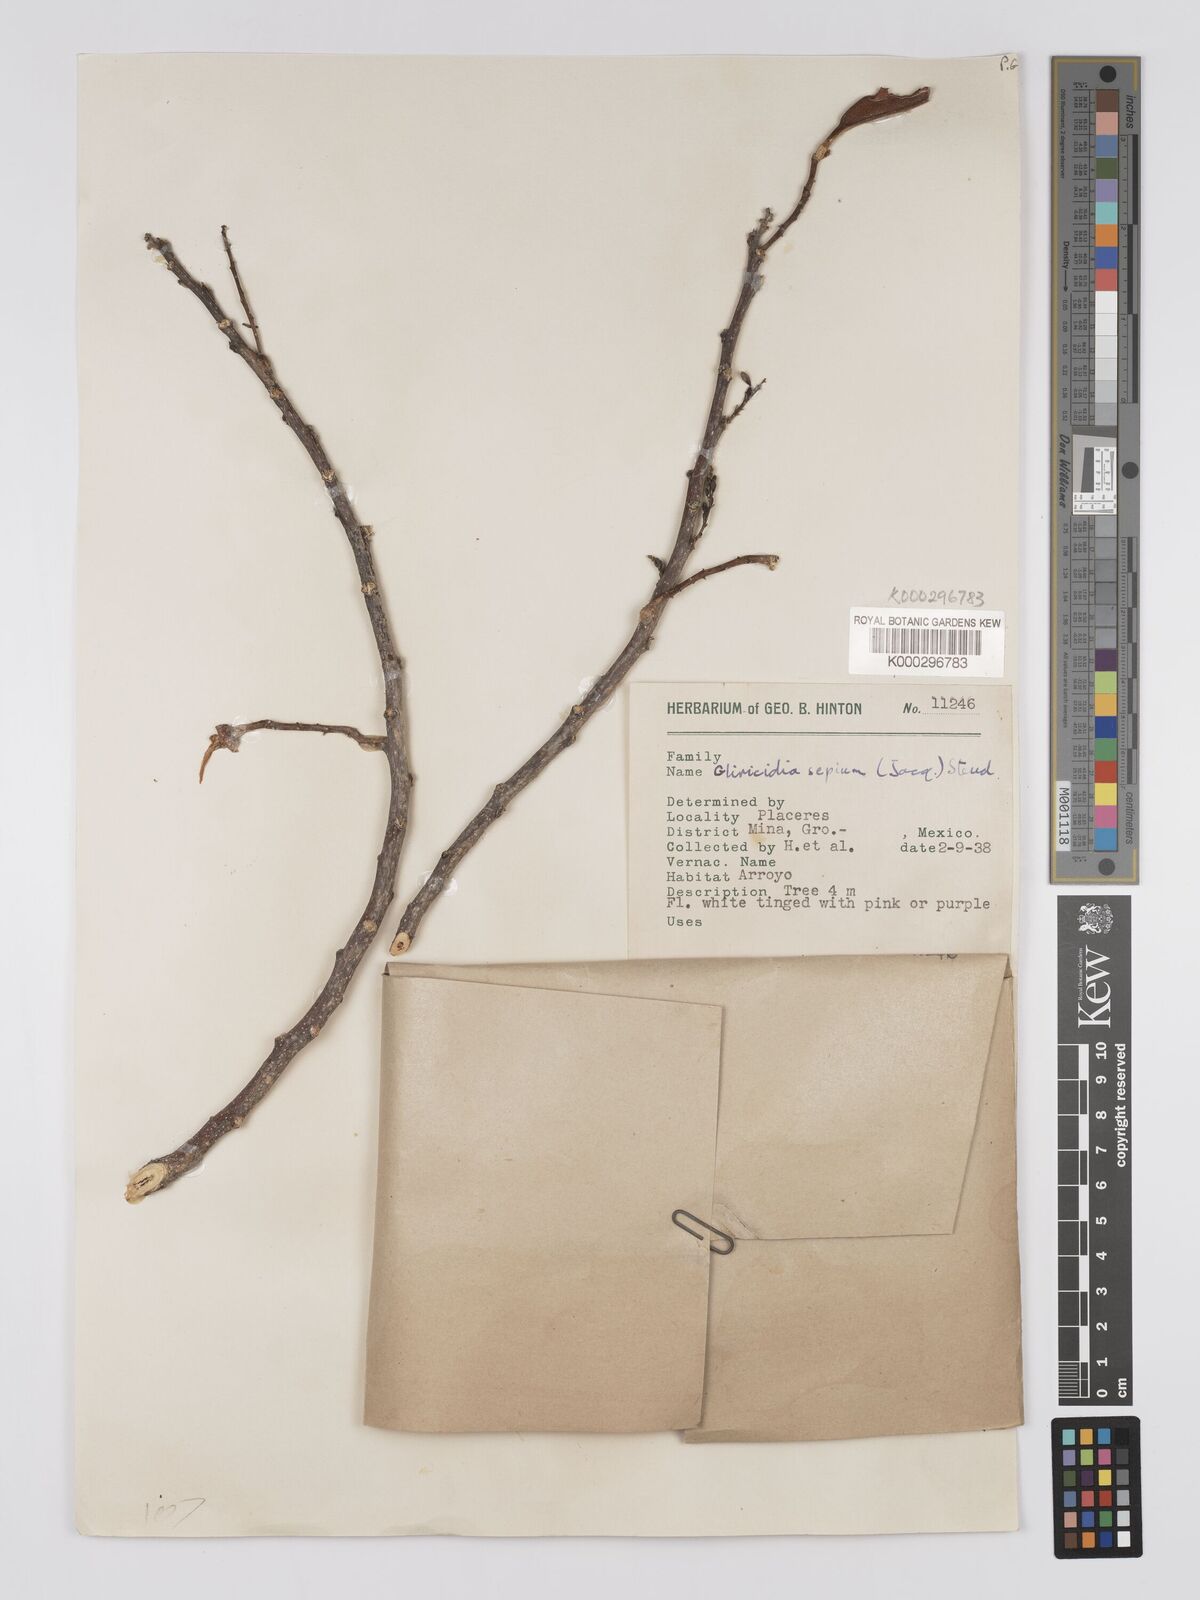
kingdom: Plantae
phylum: Tracheophyta
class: Magnoliopsida
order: Fabales
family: Fabaceae
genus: Gliricidia
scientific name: Gliricidia sepium
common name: Quickstick
